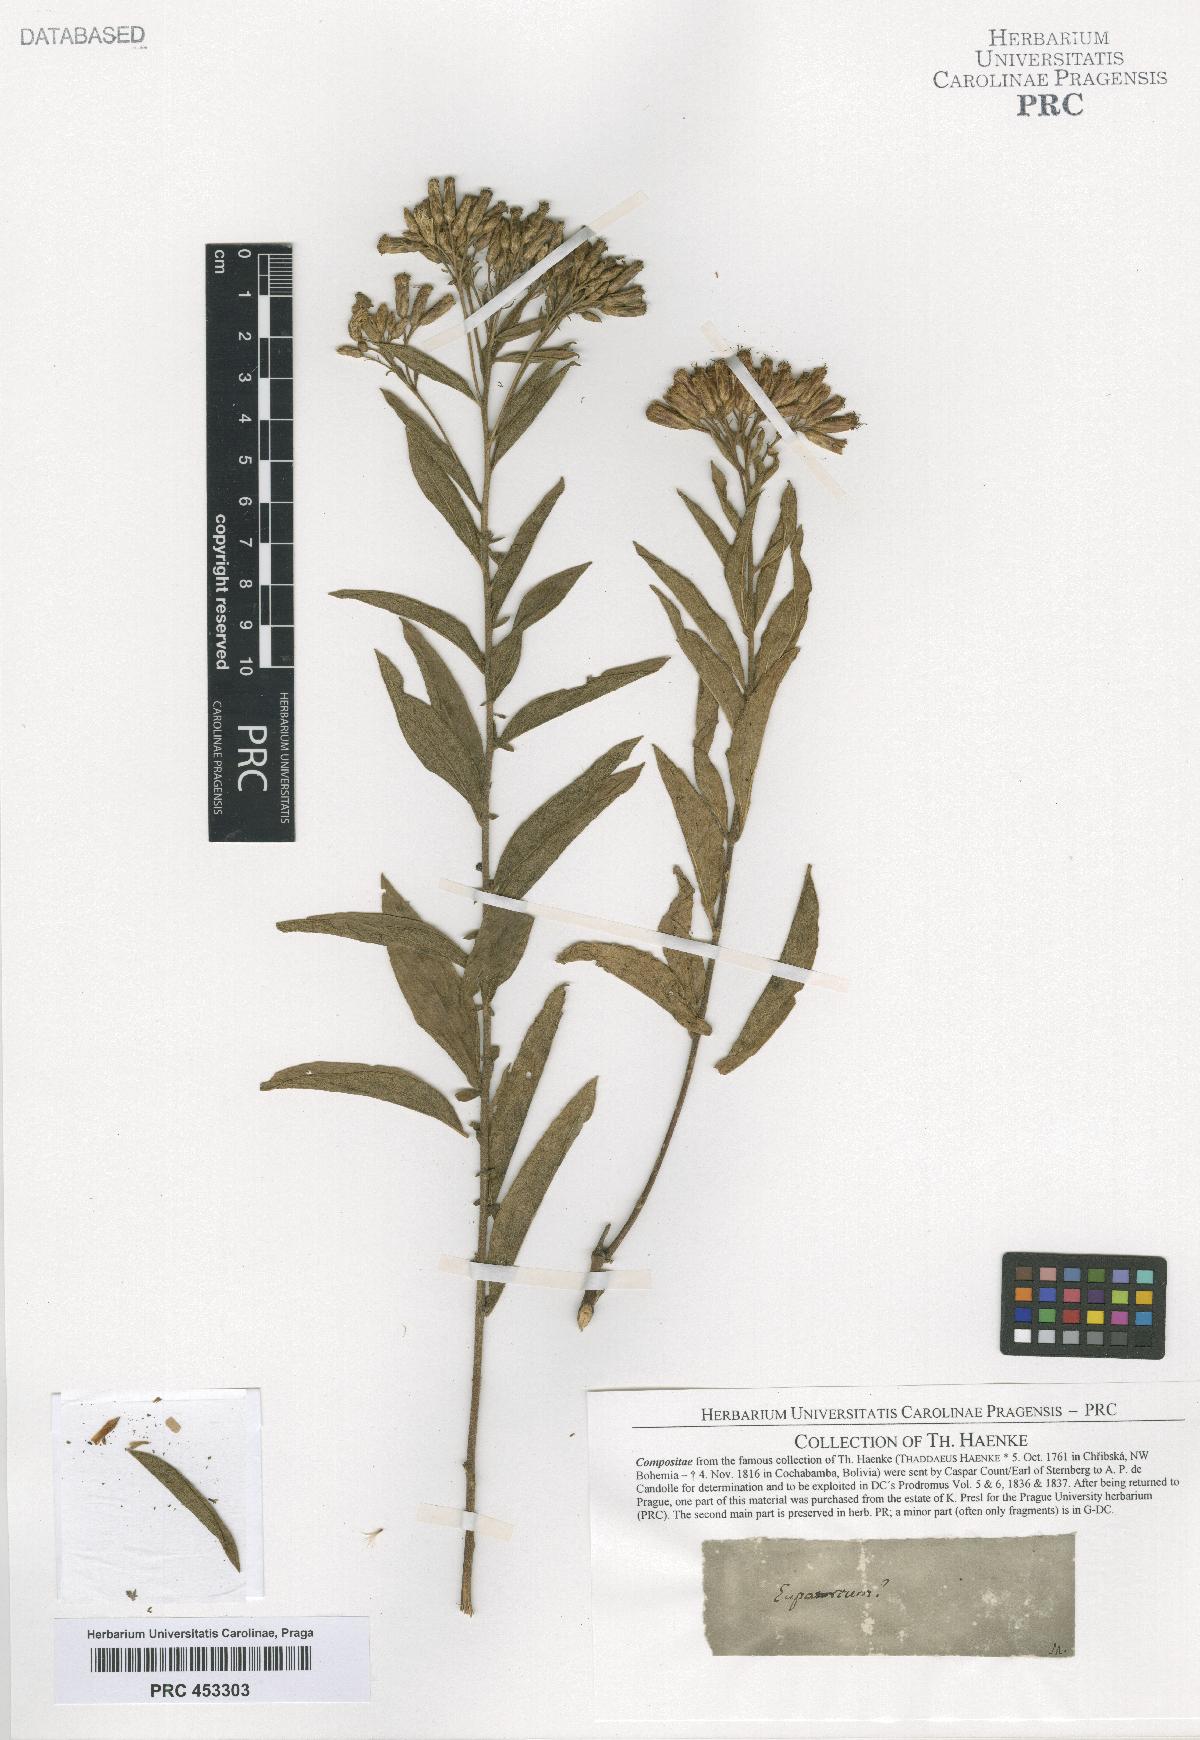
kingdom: Plantae
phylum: Tracheophyta
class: Magnoliopsida
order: Asterales
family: Asteraceae
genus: Eupatorium
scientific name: Eupatorium
